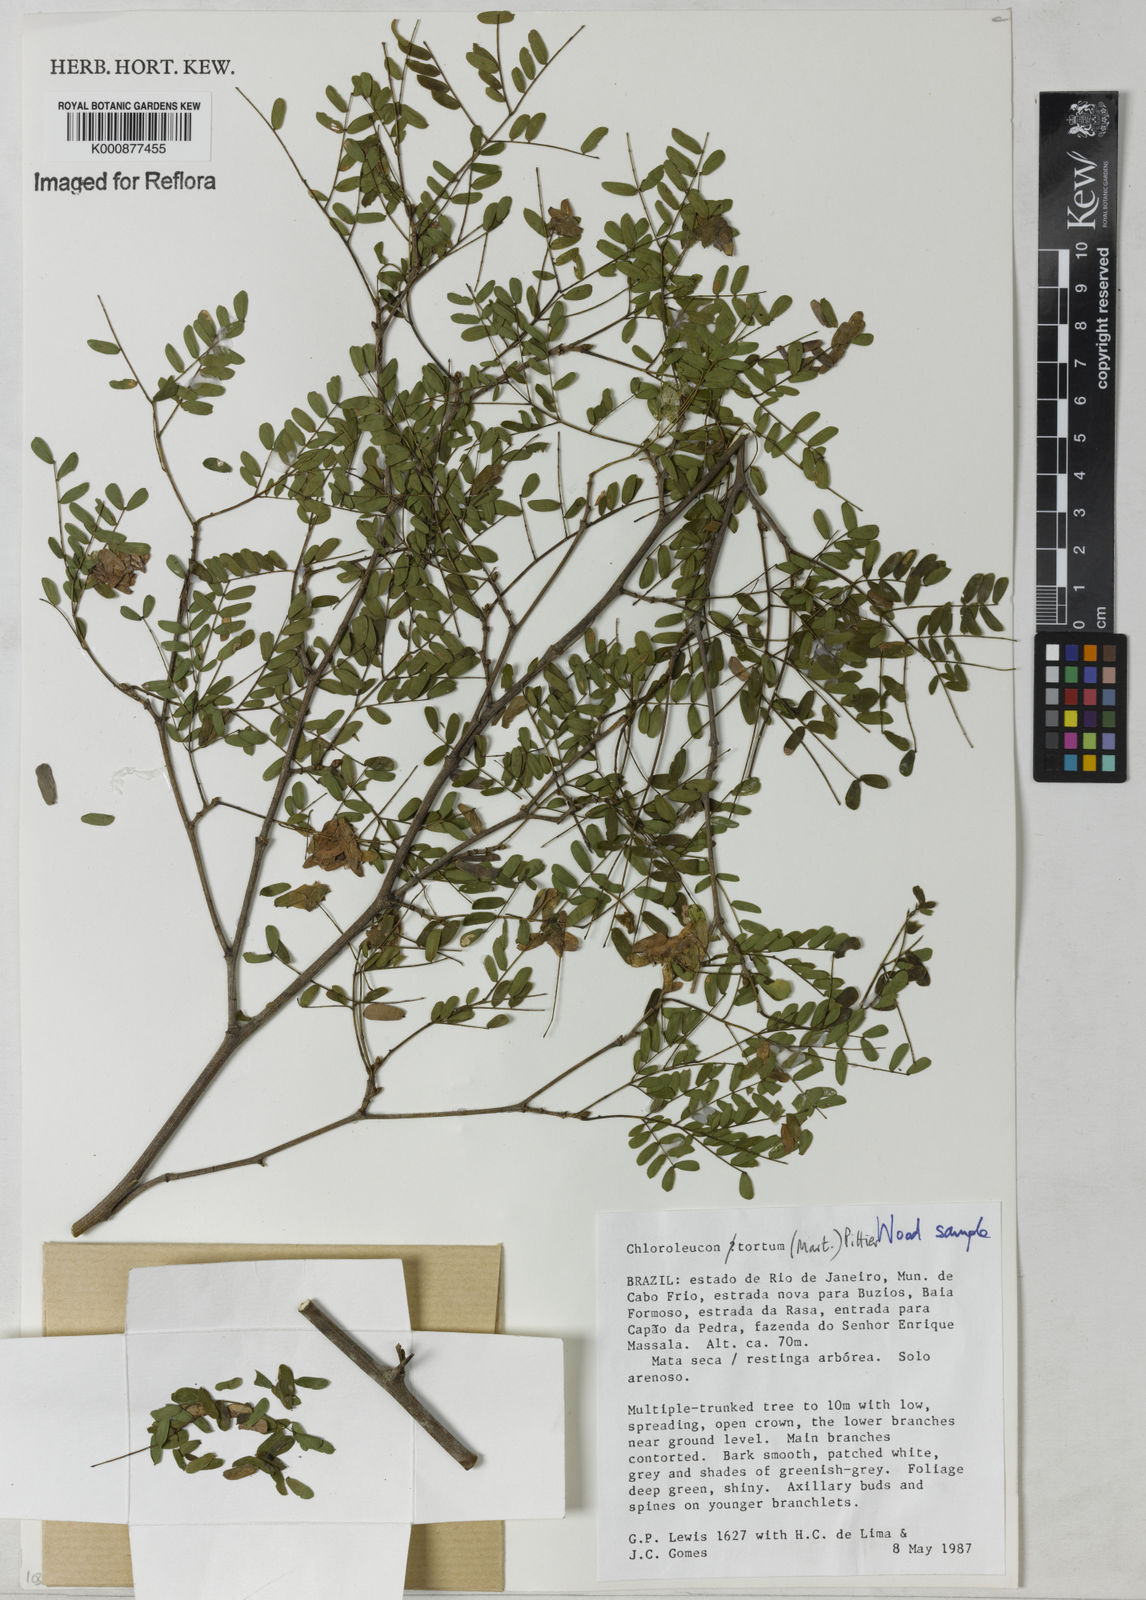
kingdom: Plantae
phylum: Tracheophyta
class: Magnoliopsida
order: Fabales
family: Fabaceae
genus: Chloroleucon
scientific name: Chloroleucon tortum
